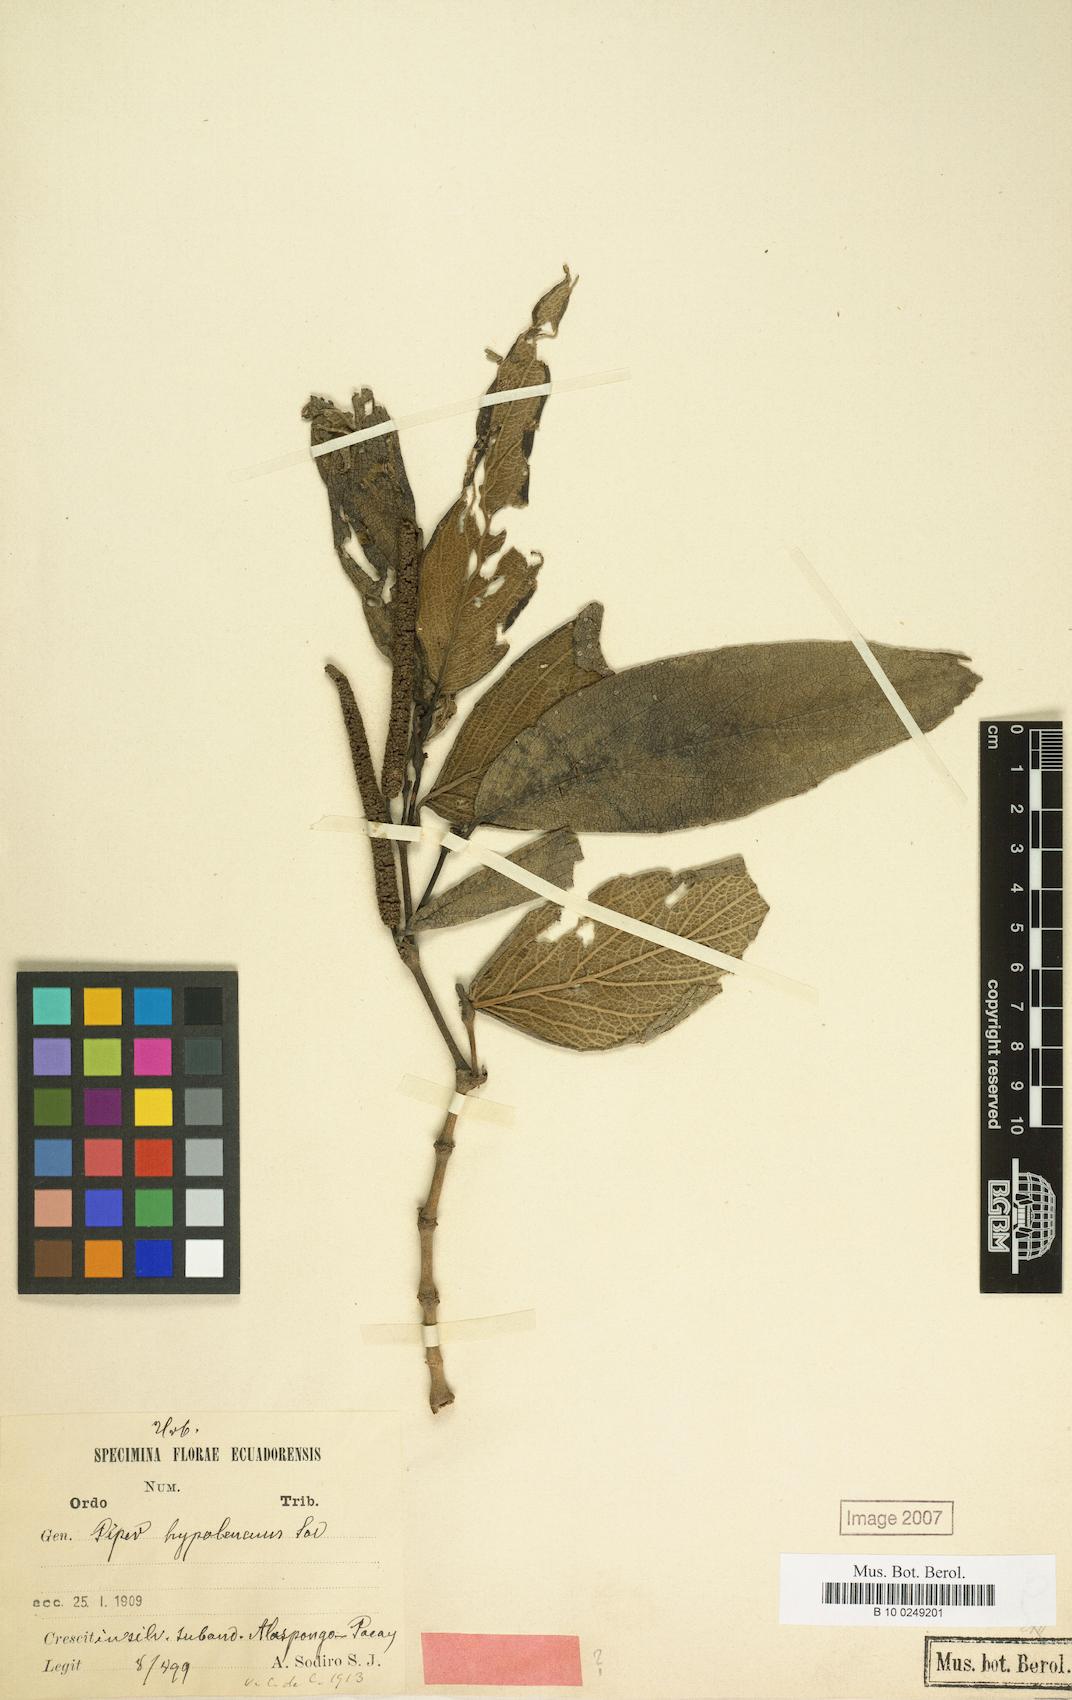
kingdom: Plantae
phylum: Tracheophyta
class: Magnoliopsida
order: Piperales
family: Piperaceae
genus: Piper
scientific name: Piper hypoleucum
